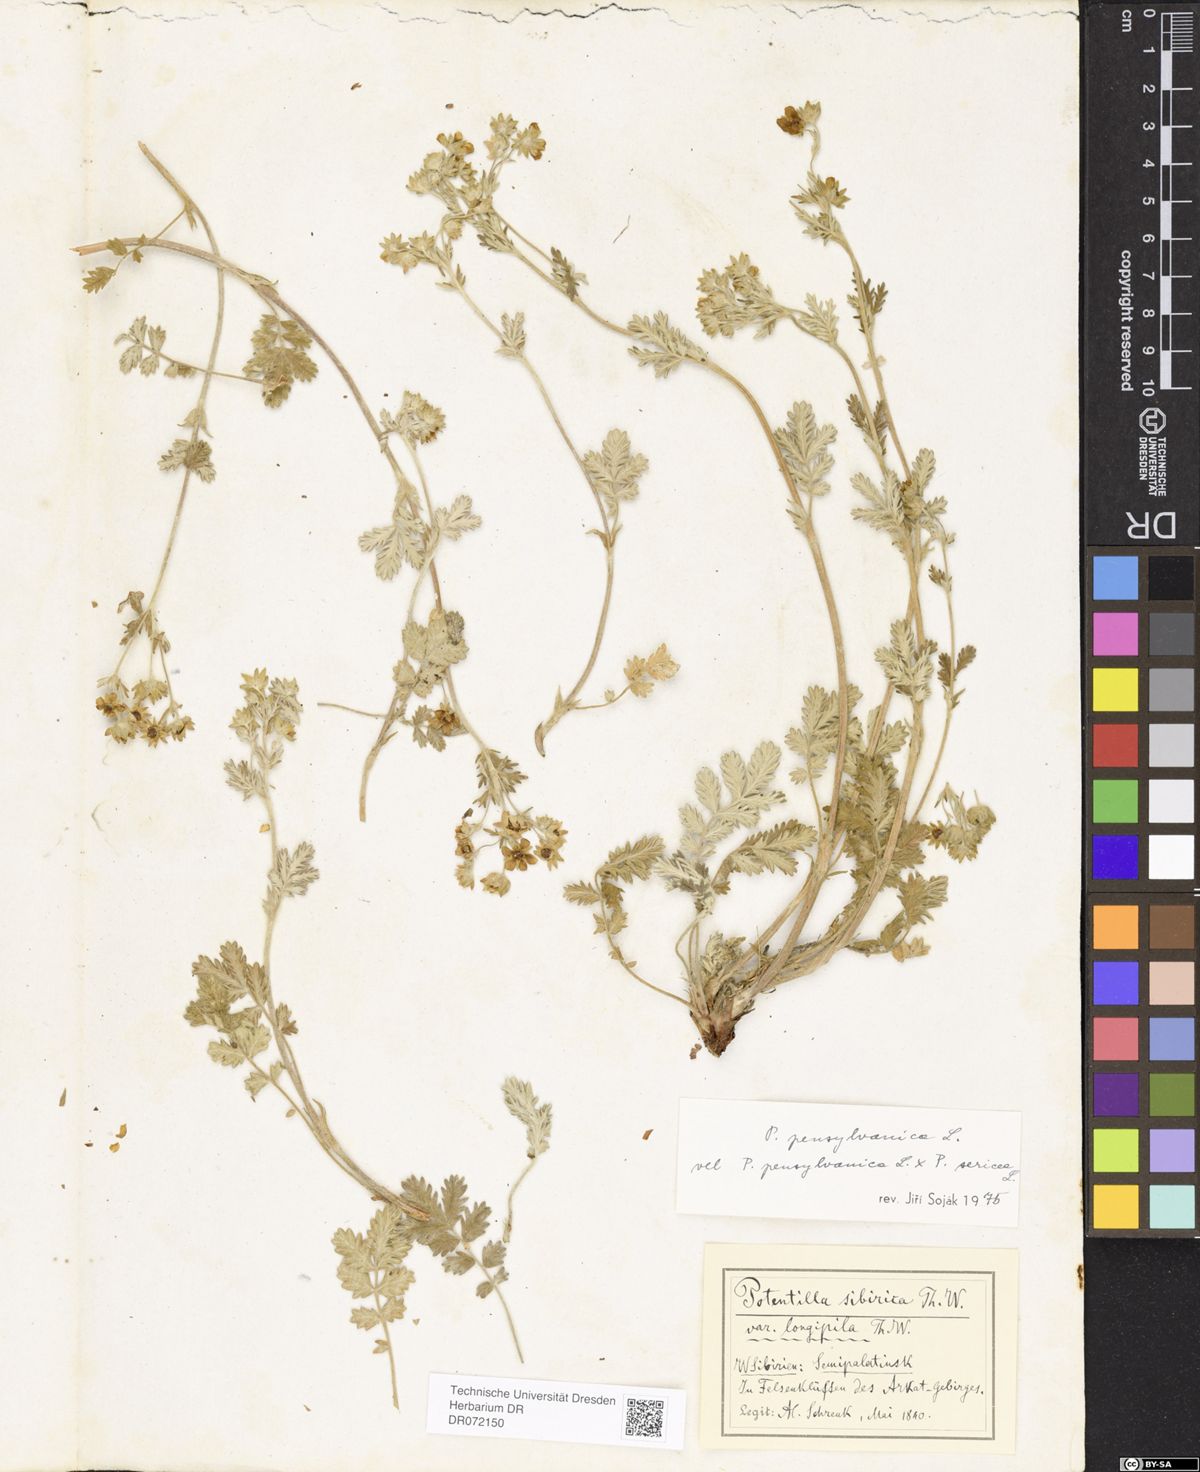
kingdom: Plantae
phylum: Tracheophyta
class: Magnoliopsida
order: Rosales
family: Rosaceae
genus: Potentilla
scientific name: Potentilla pensylvanica
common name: Pennsylvania cinquefoil
